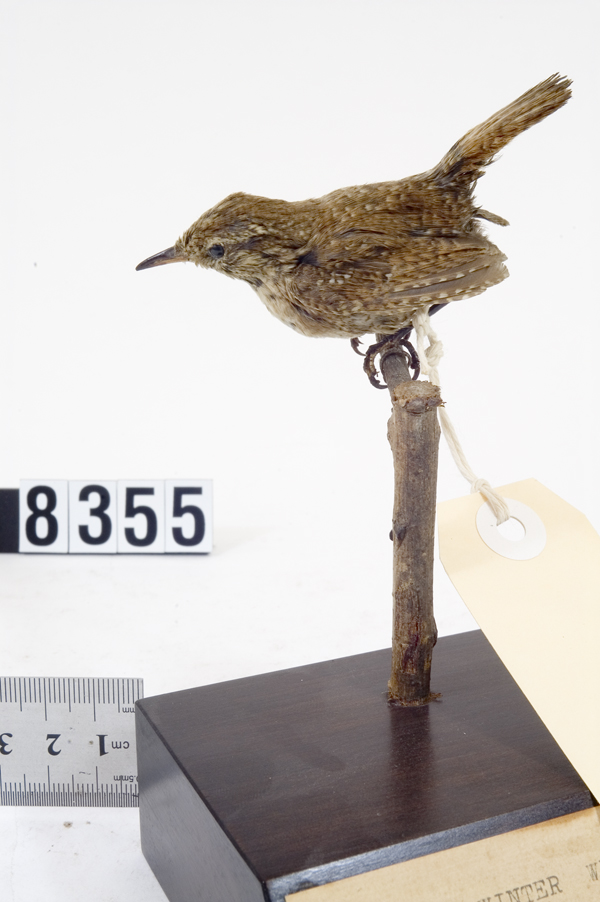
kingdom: Animalia
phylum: Chordata
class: Aves
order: Passeriformes
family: Troglodytidae
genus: Troglodytes
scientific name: Troglodytes troglodytes
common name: Eurasian wren
